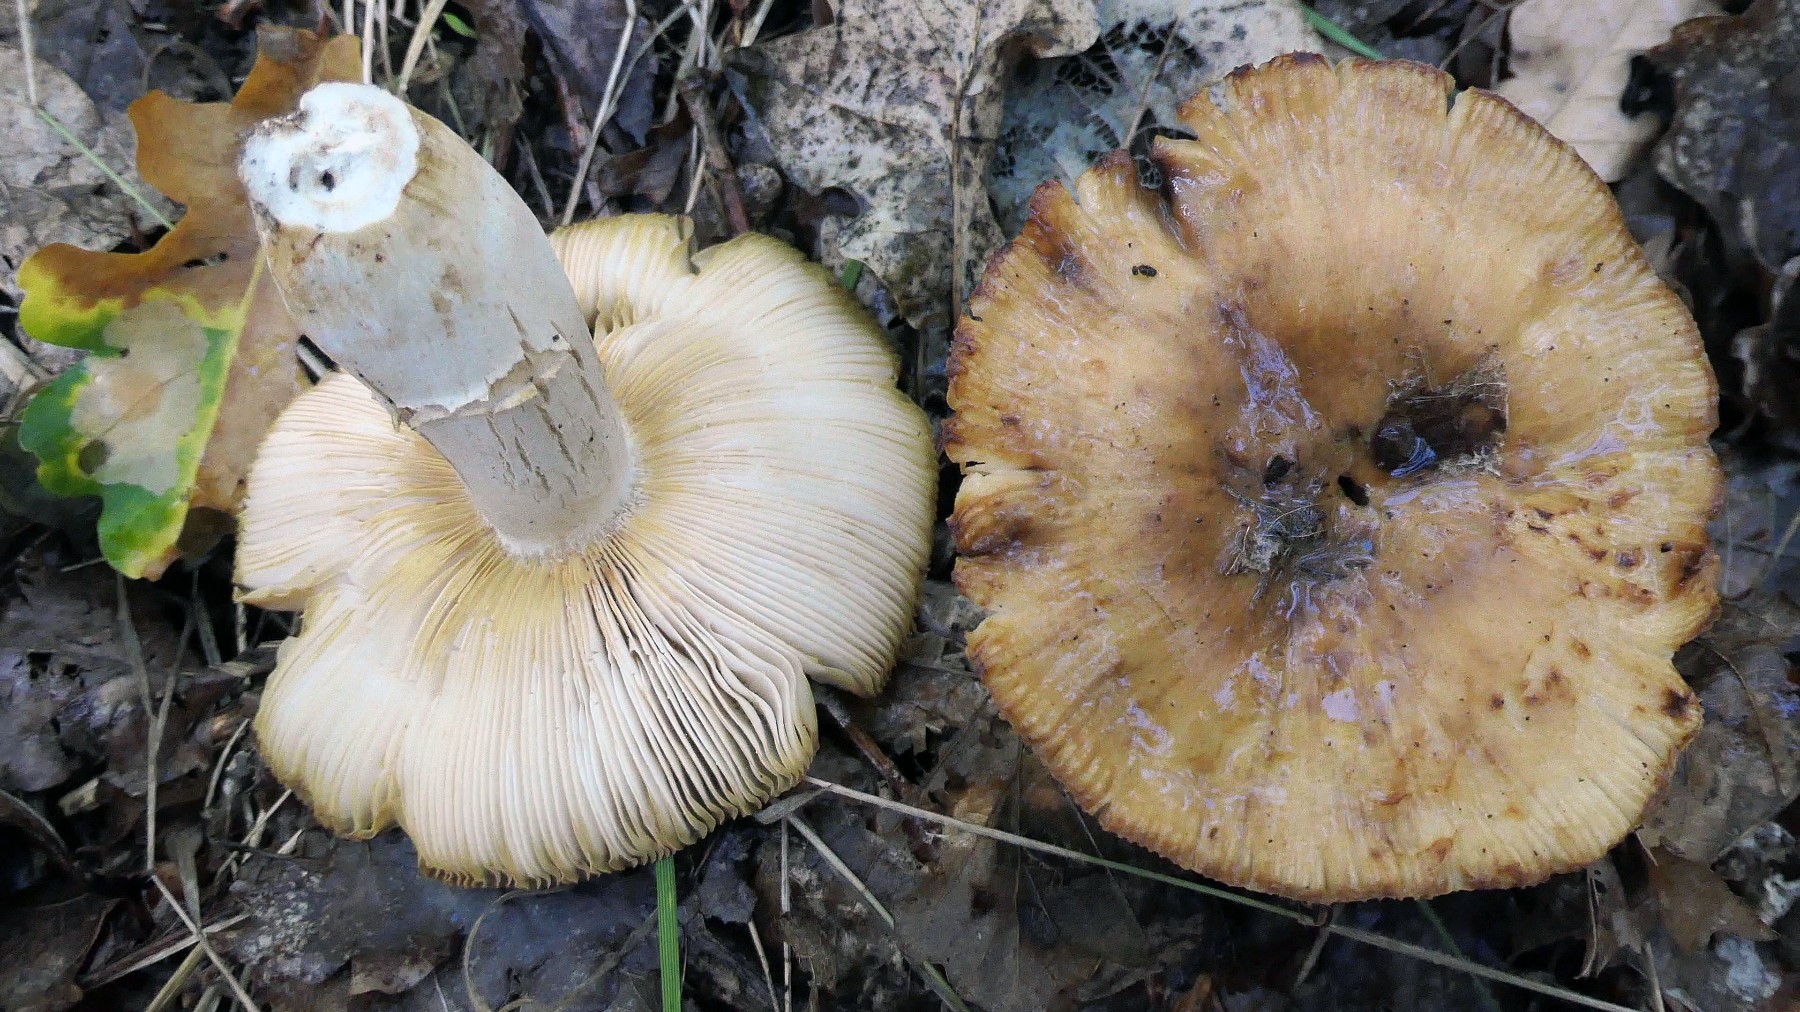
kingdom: Fungi
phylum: Basidiomycota
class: Agaricomycetes
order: Russulales
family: Russulaceae
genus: Russula
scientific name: Russula foetens
